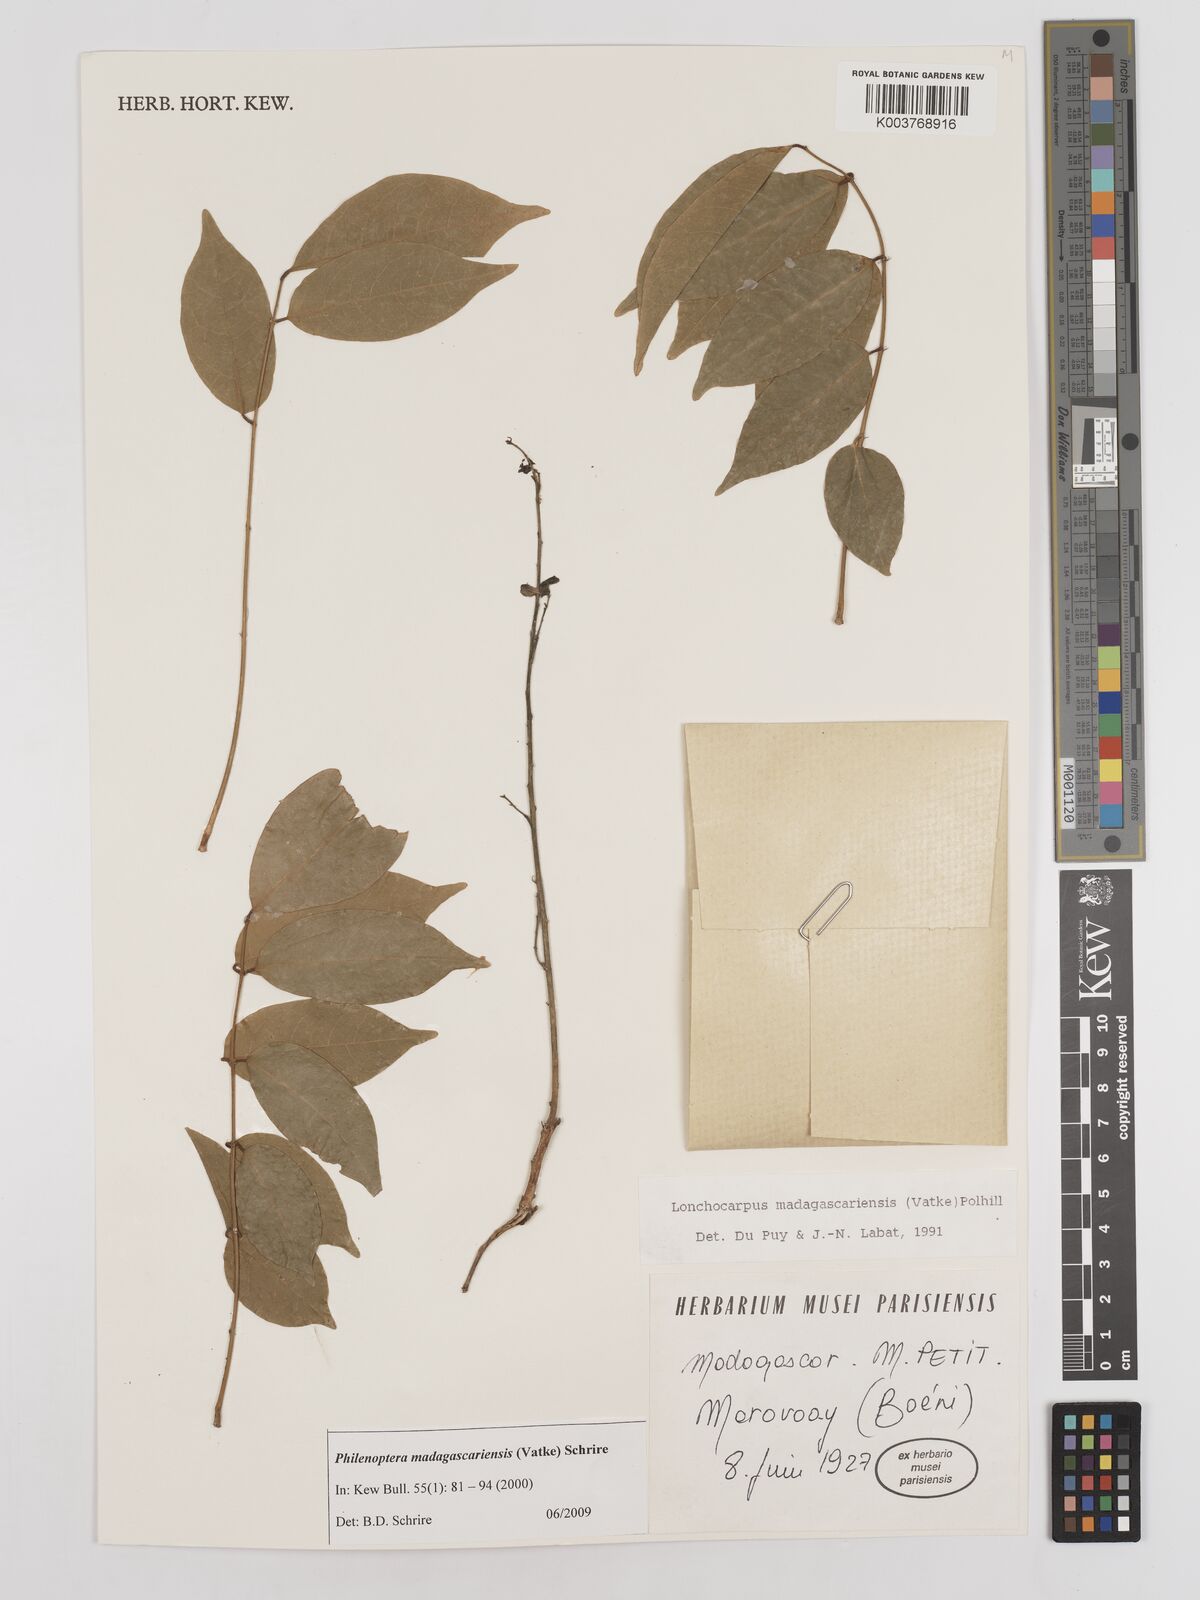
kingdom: Plantae
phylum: Tracheophyta
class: Magnoliopsida
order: Fabales
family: Fabaceae
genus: Lonchocarpus
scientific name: Lonchocarpus madagascariensis
